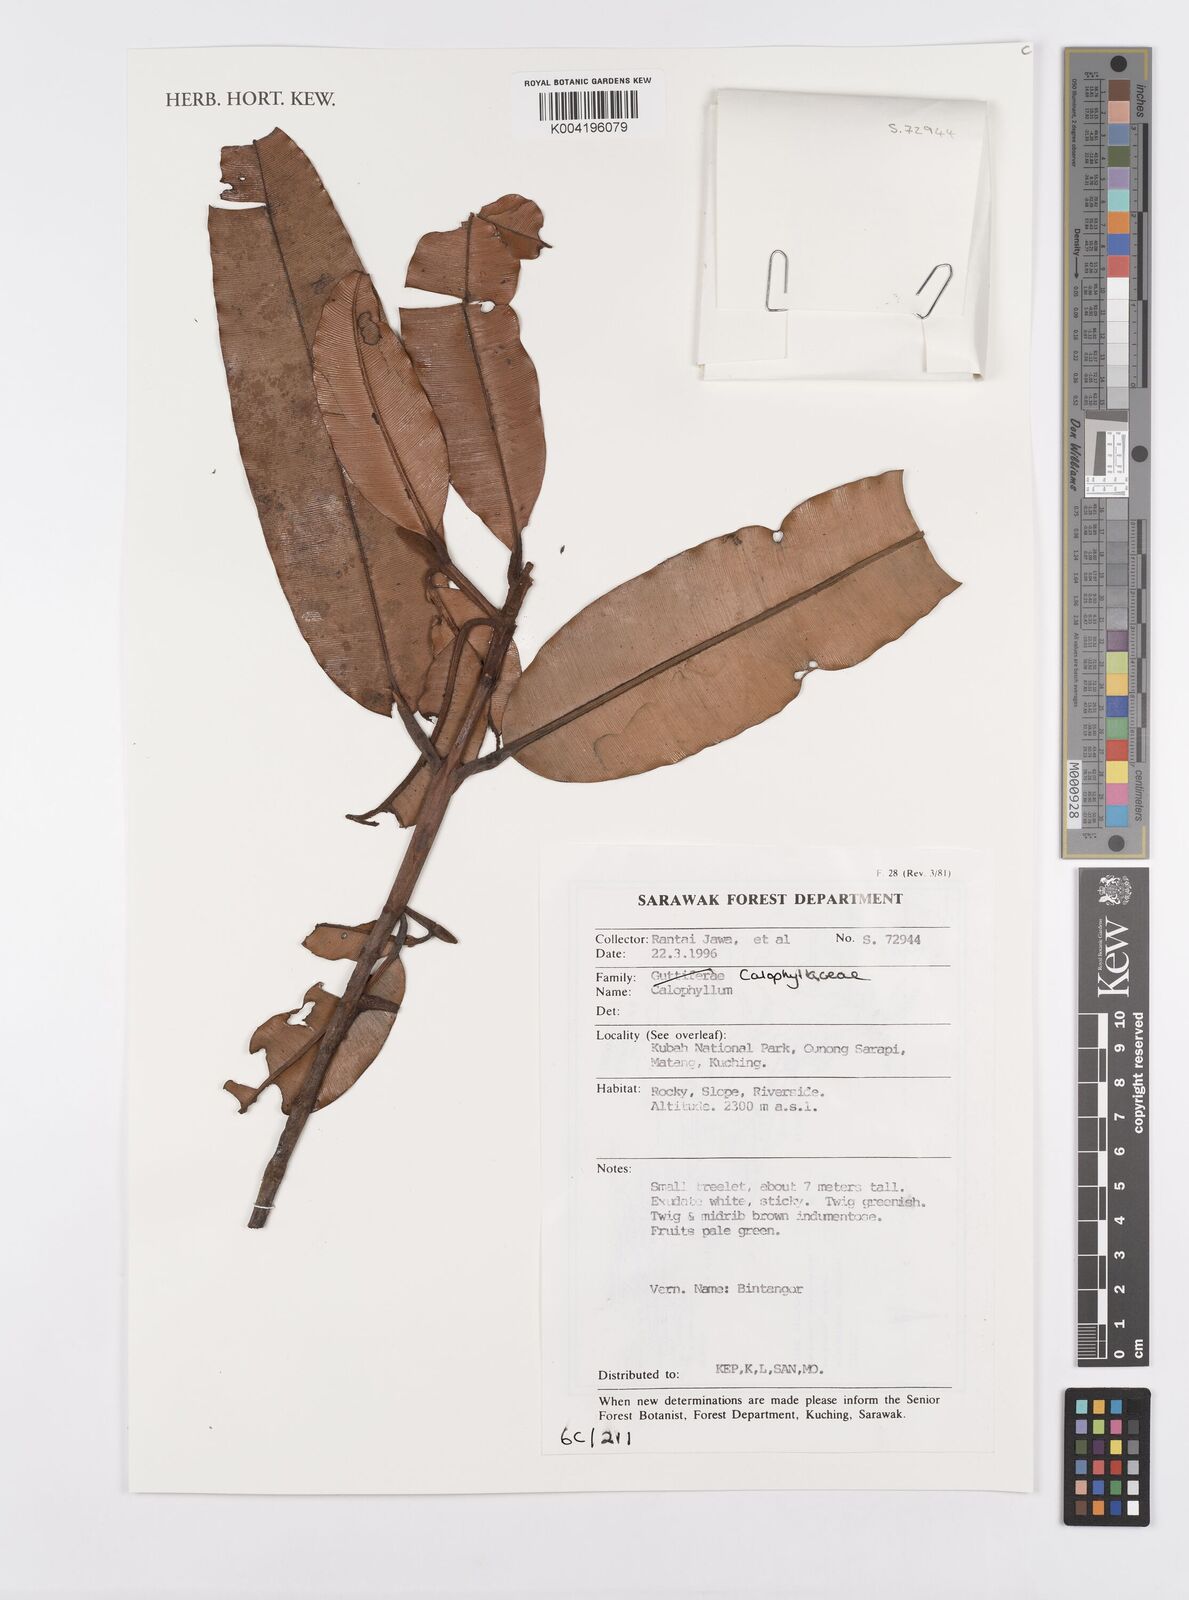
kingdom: Plantae
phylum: Tracheophyta
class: Magnoliopsida
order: Malpighiales
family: Calophyllaceae
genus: Calophyllum
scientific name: Calophyllum
